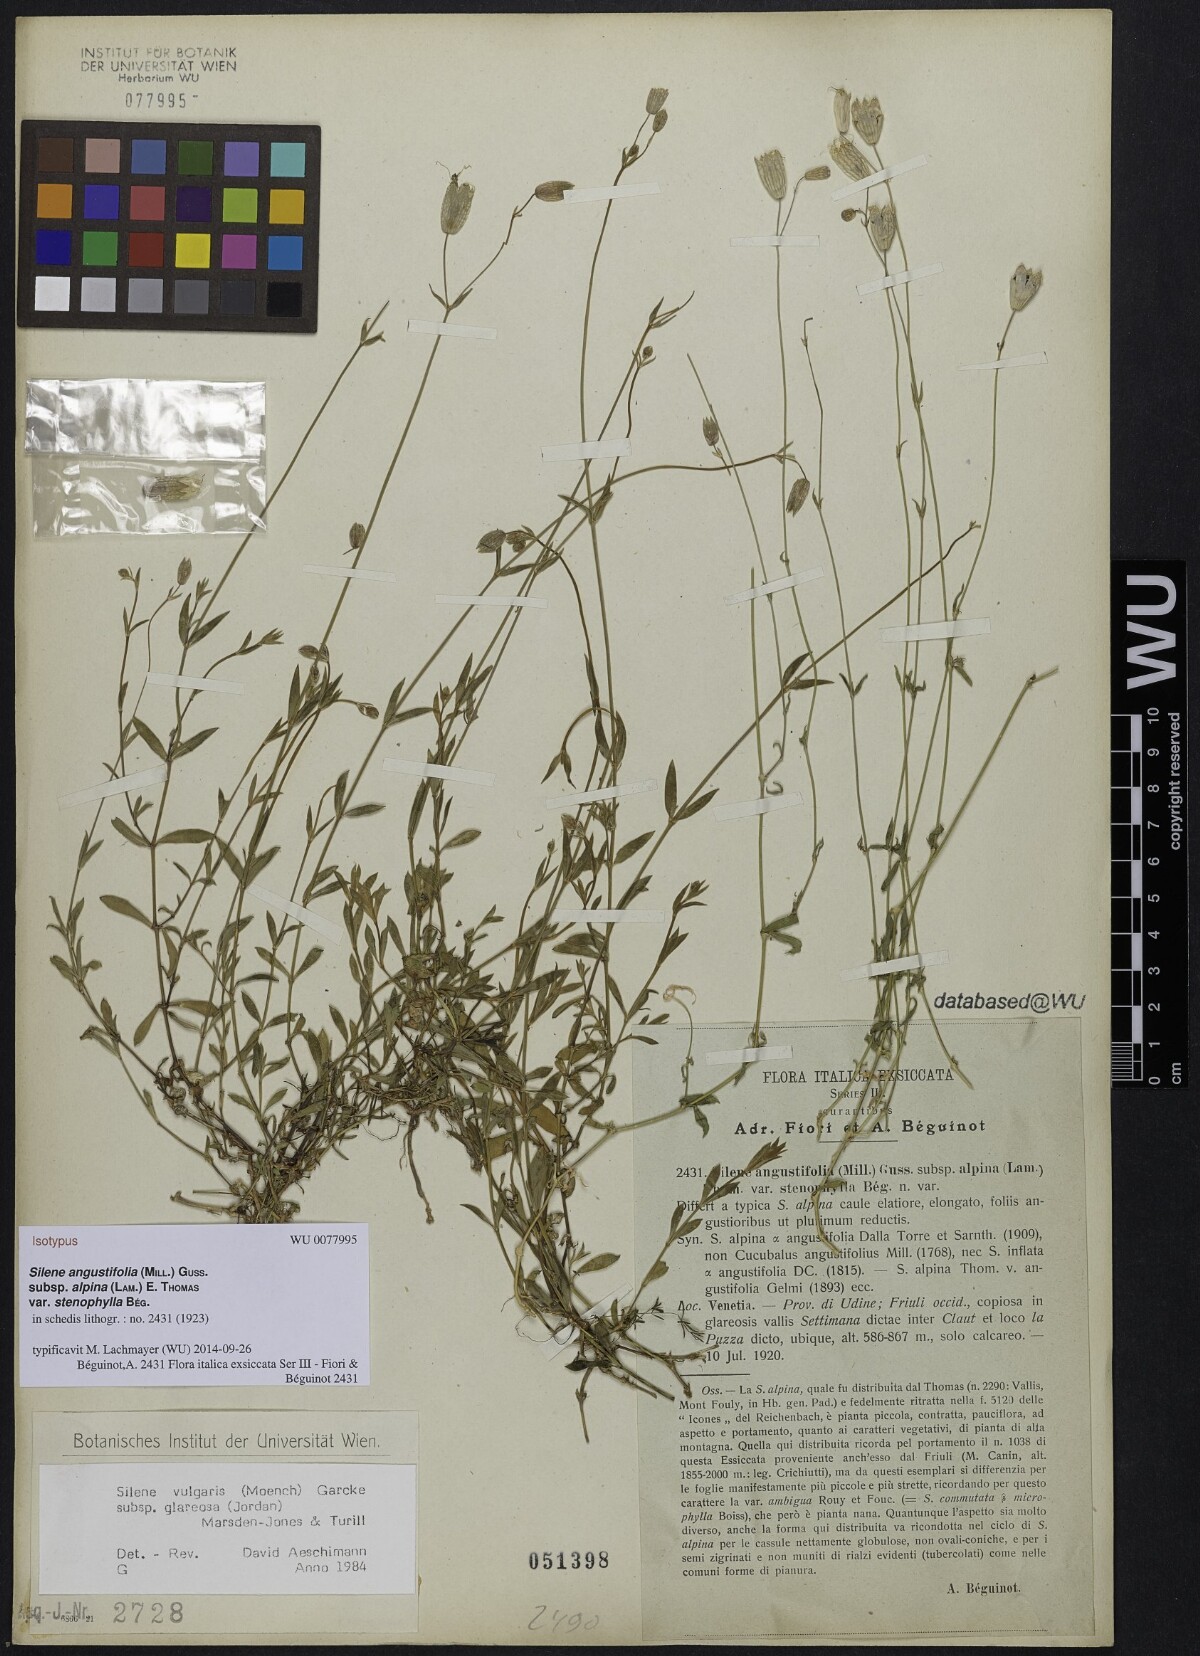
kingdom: Plantae
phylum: Tracheophyta
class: Magnoliopsida
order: Caryophyllales
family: Caryophyllaceae
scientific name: Caryophyllaceae
